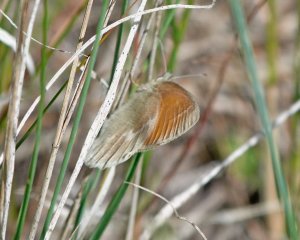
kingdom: Animalia
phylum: Arthropoda
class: Insecta
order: Lepidoptera
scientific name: Lepidoptera
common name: Butterflies
